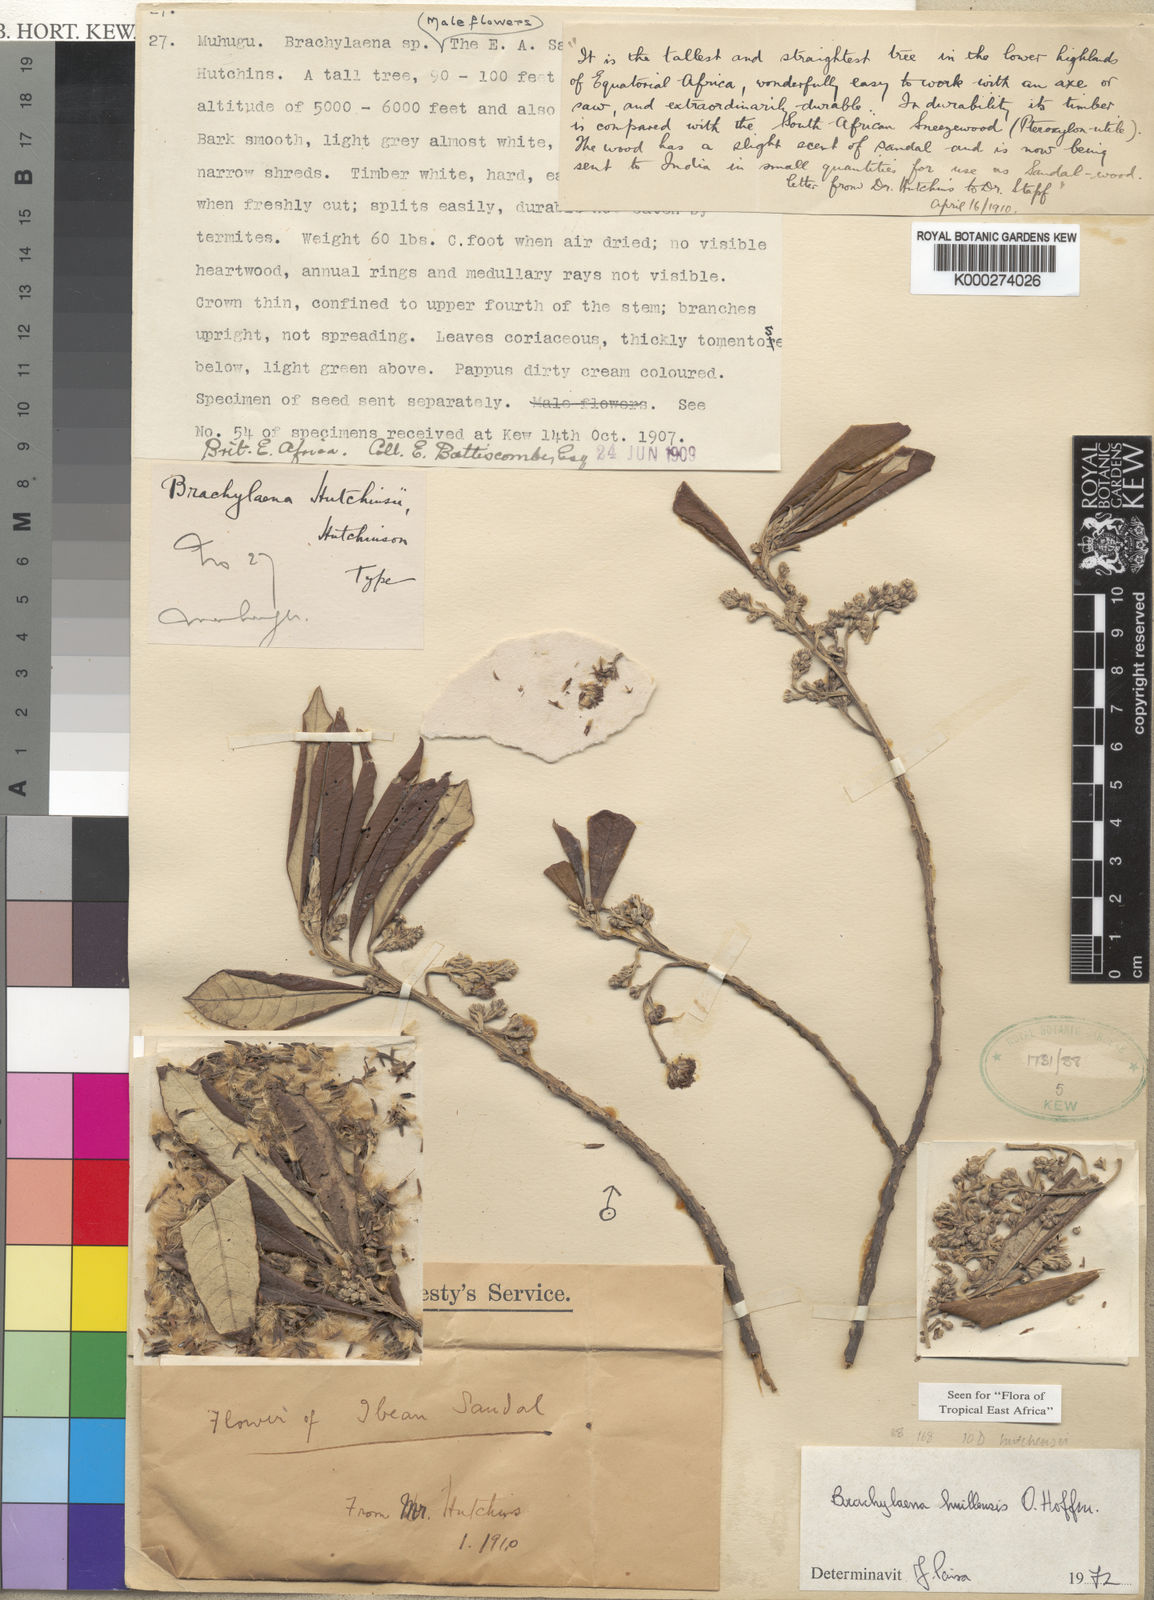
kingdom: Plantae
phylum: Tracheophyta
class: Magnoliopsida
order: Asterales
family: Asteraceae
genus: Brachylaena
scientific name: Brachylaena huillensis
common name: Silver-oak
